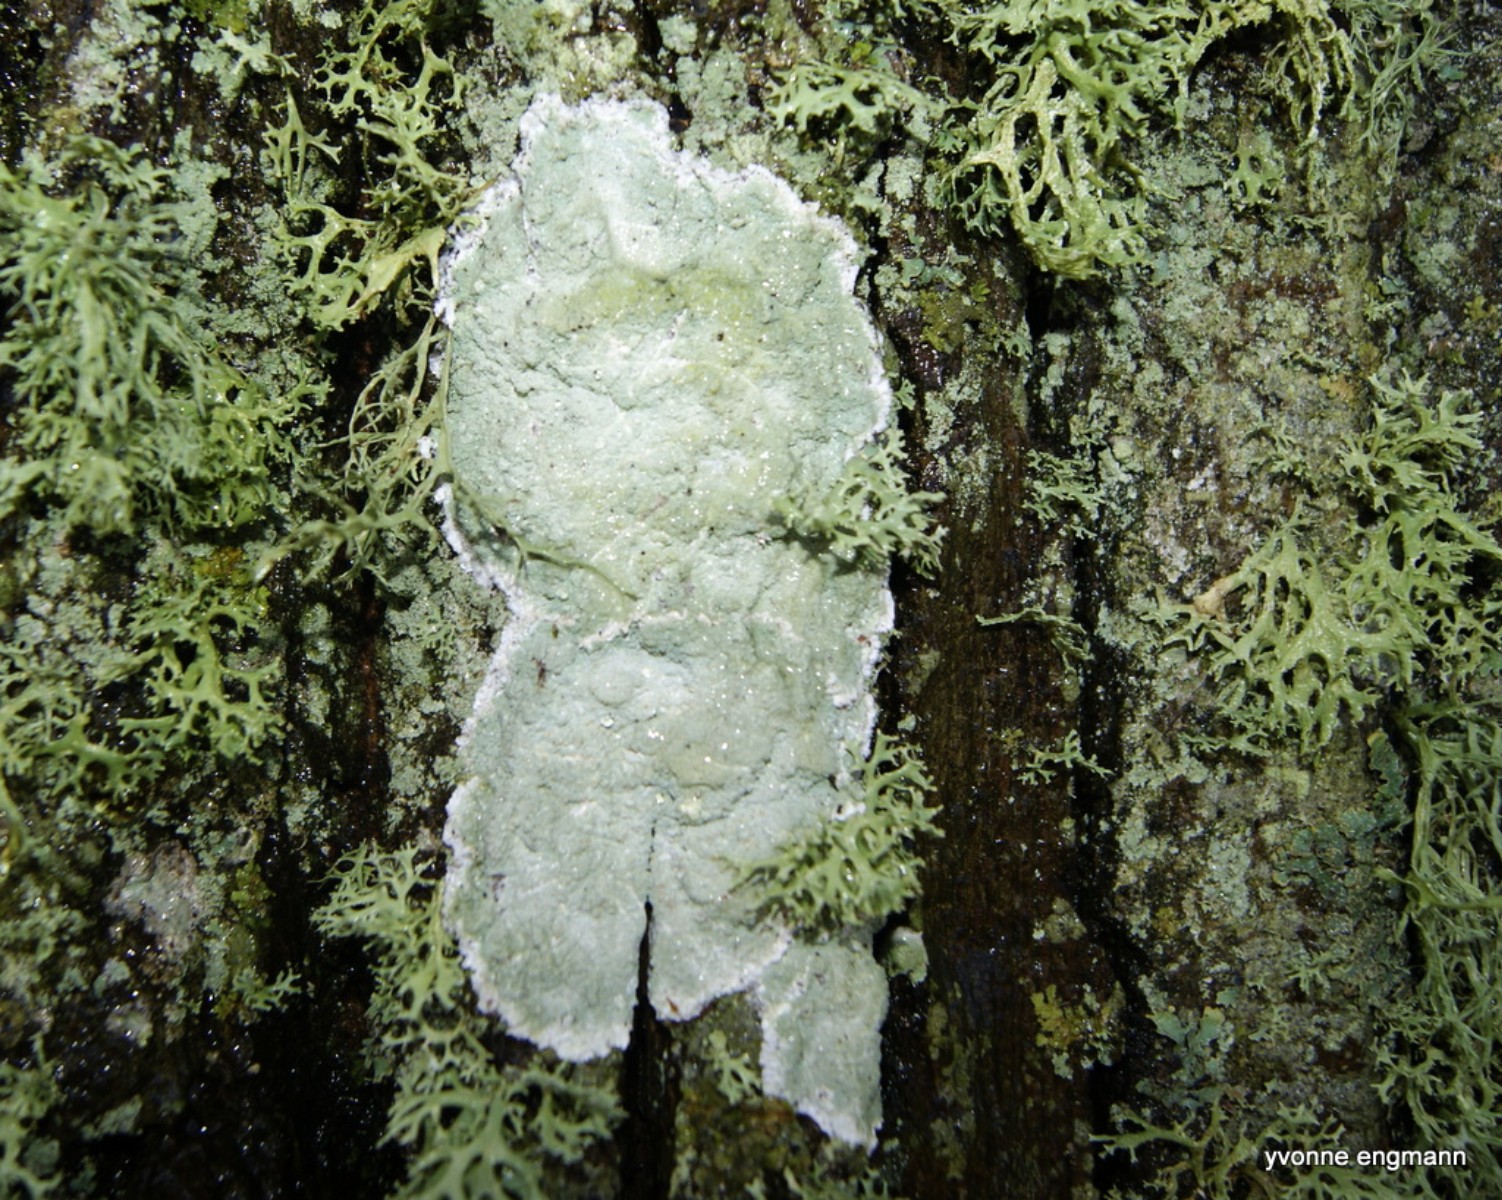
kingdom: Fungi
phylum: Ascomycota
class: Lecanoromycetes
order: Lecanorales
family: Haematommataceae
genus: Haematomma
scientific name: Haematomma ochroleucum
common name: gul trådkantlav
